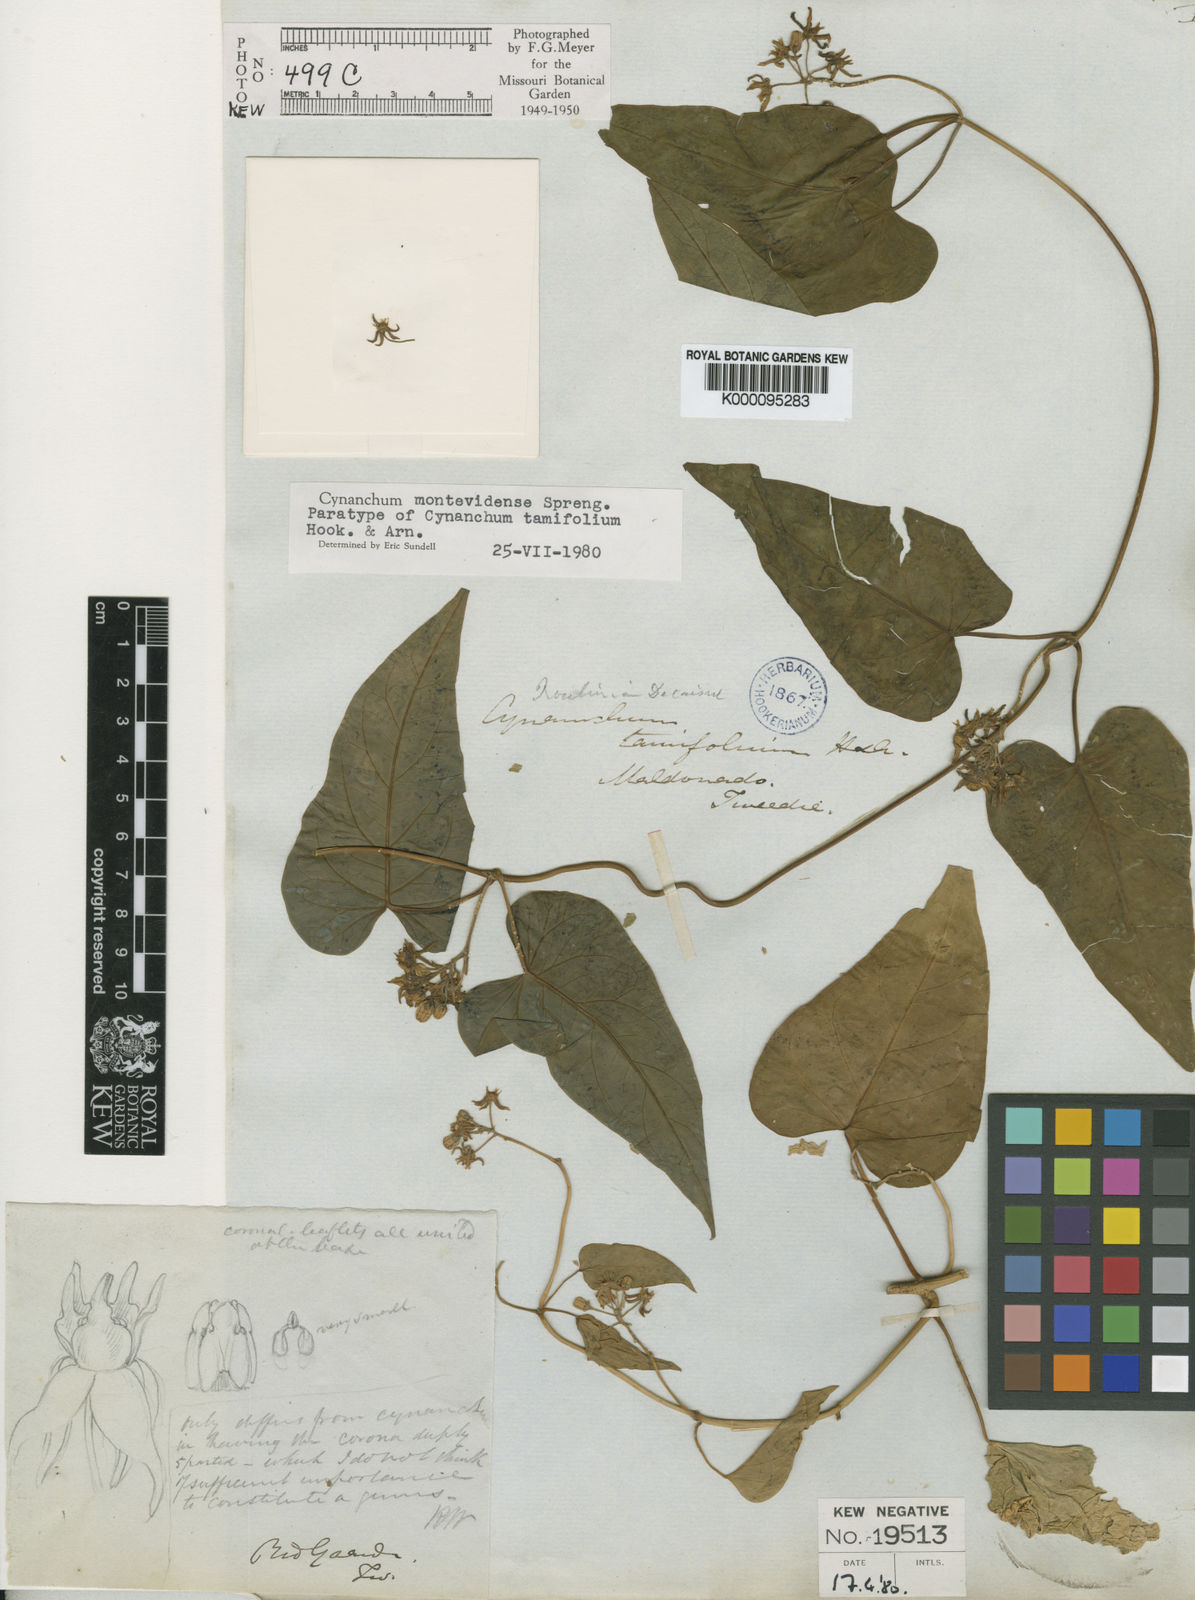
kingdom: Plantae
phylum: Tracheophyta
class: Magnoliopsida
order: Gentianales
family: Apocynaceae
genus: Cynanchum
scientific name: Cynanchum montevidense
